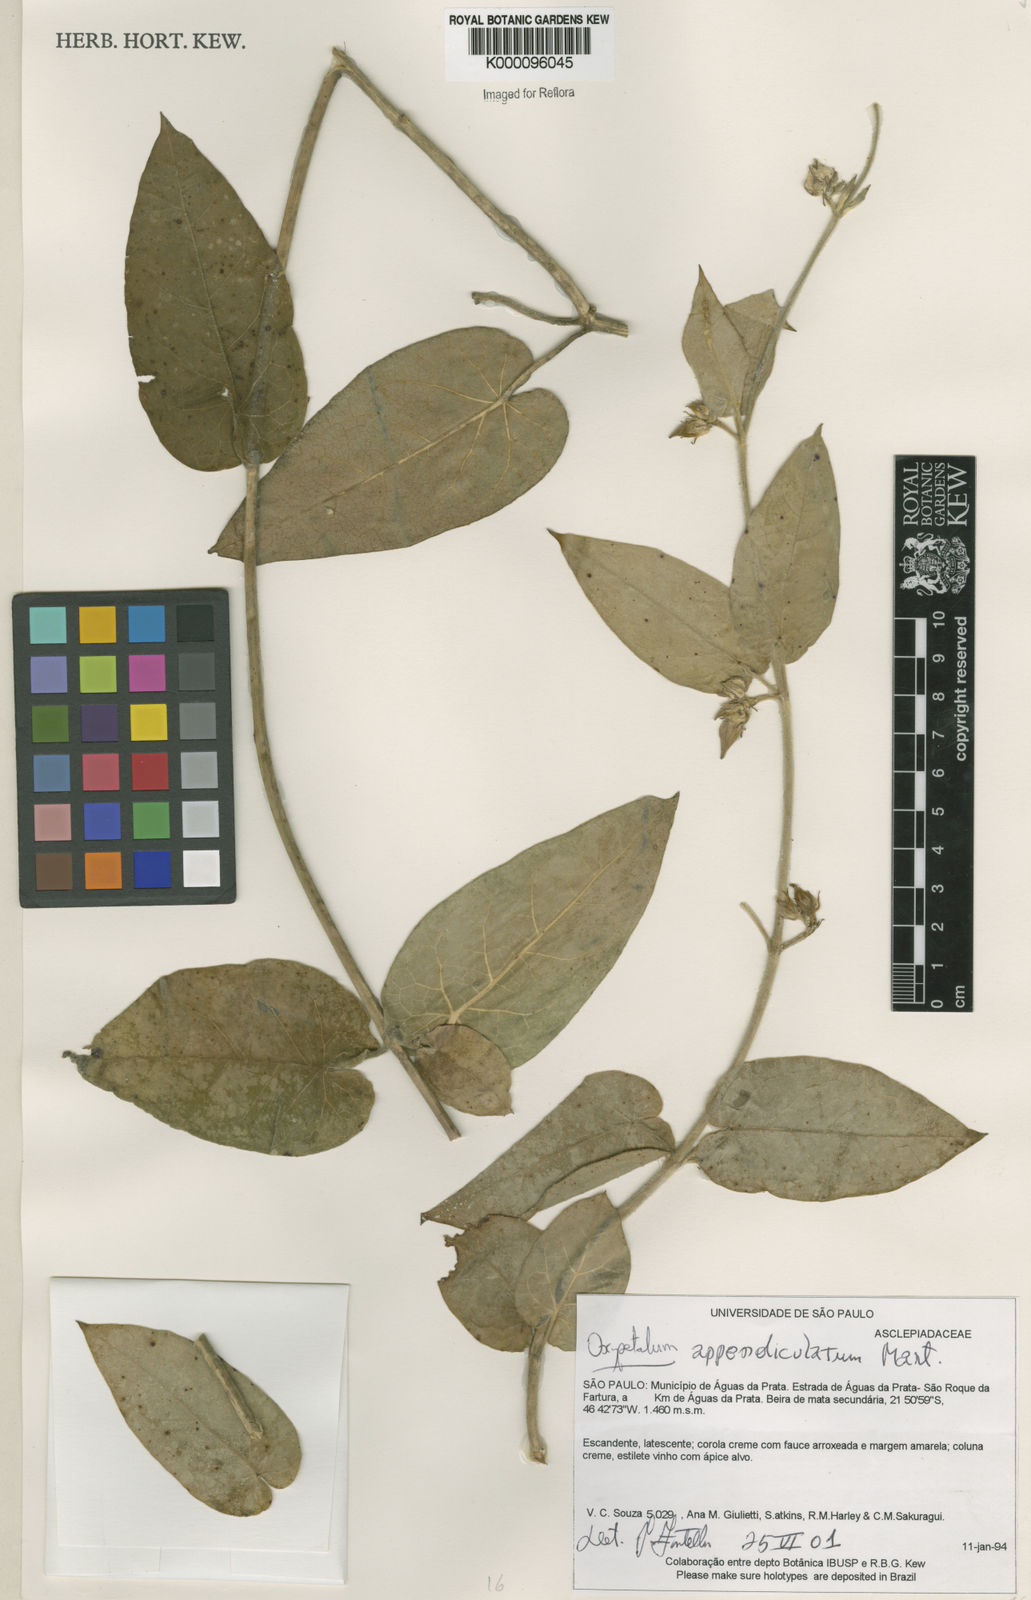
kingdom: Plantae
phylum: Tracheophyta
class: Magnoliopsida
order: Gentianales
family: Apocynaceae
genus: Oxypetalum
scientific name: Oxypetalum appendiculatum
